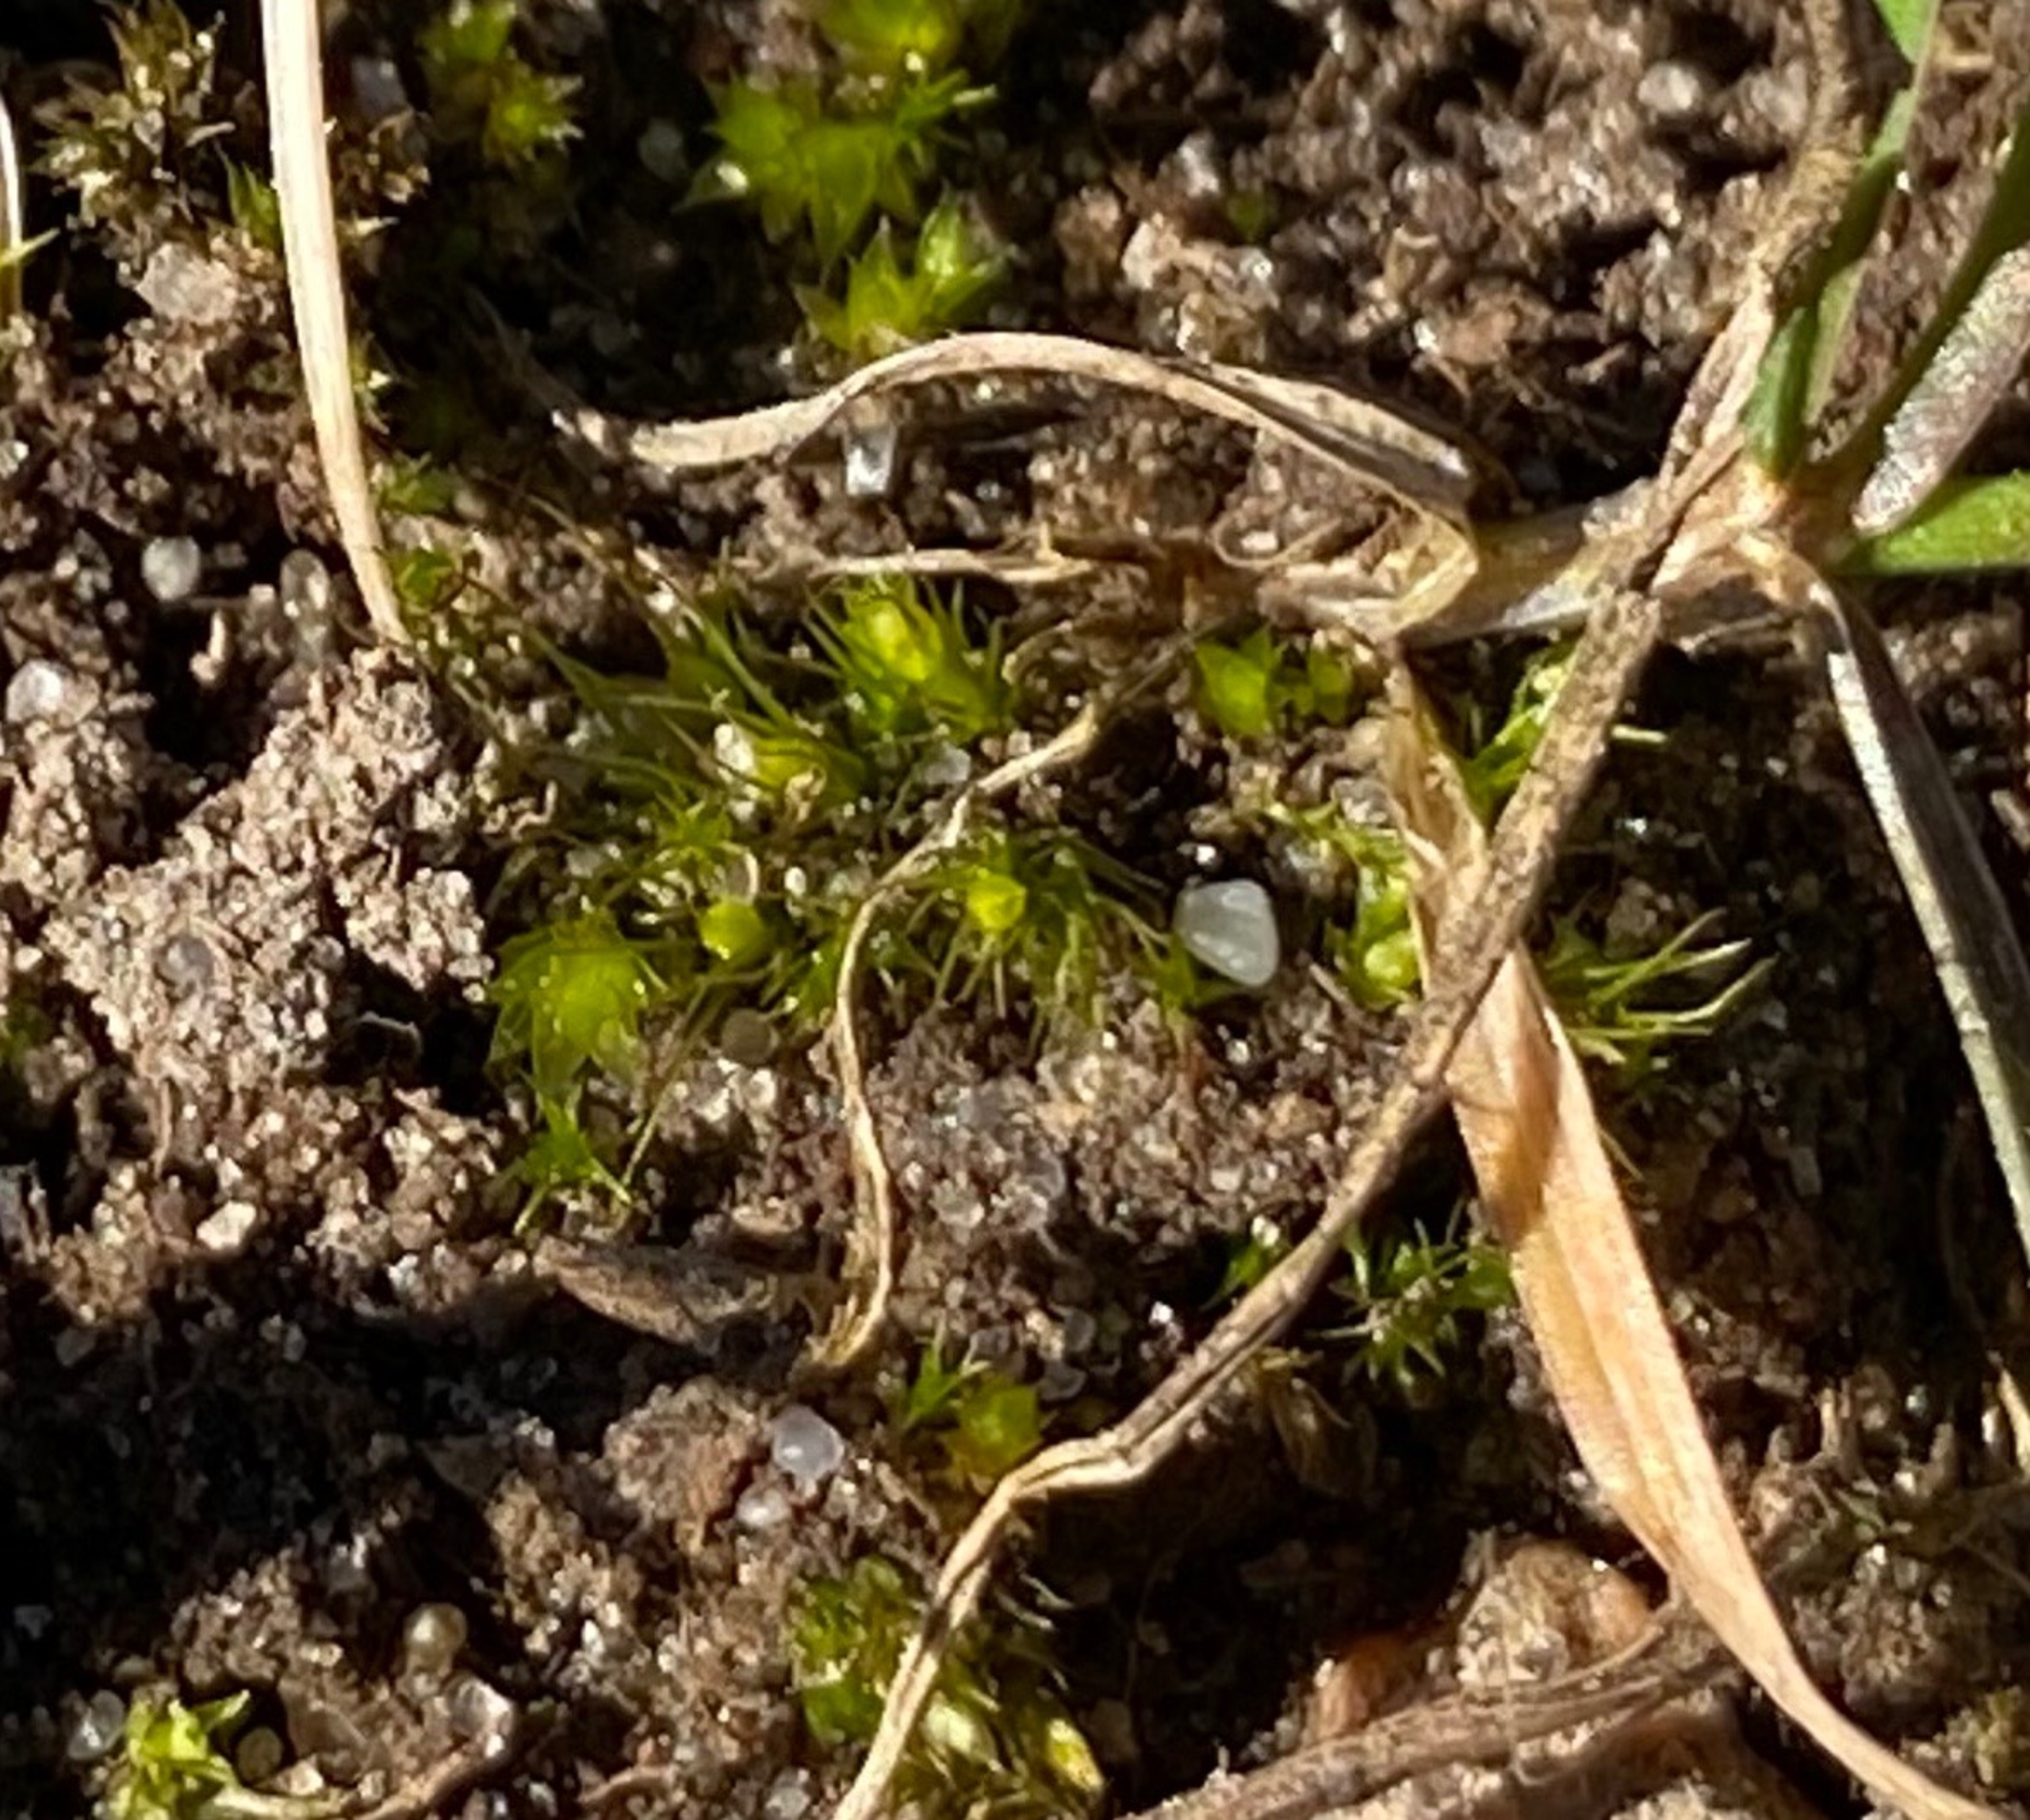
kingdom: Plantae
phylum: Bryophyta
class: Bryopsida
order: Dicranales
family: Ditrichaceae
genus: Pleuridium
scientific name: Pleuridium acuminatum
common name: Siddende sylbladsmos
